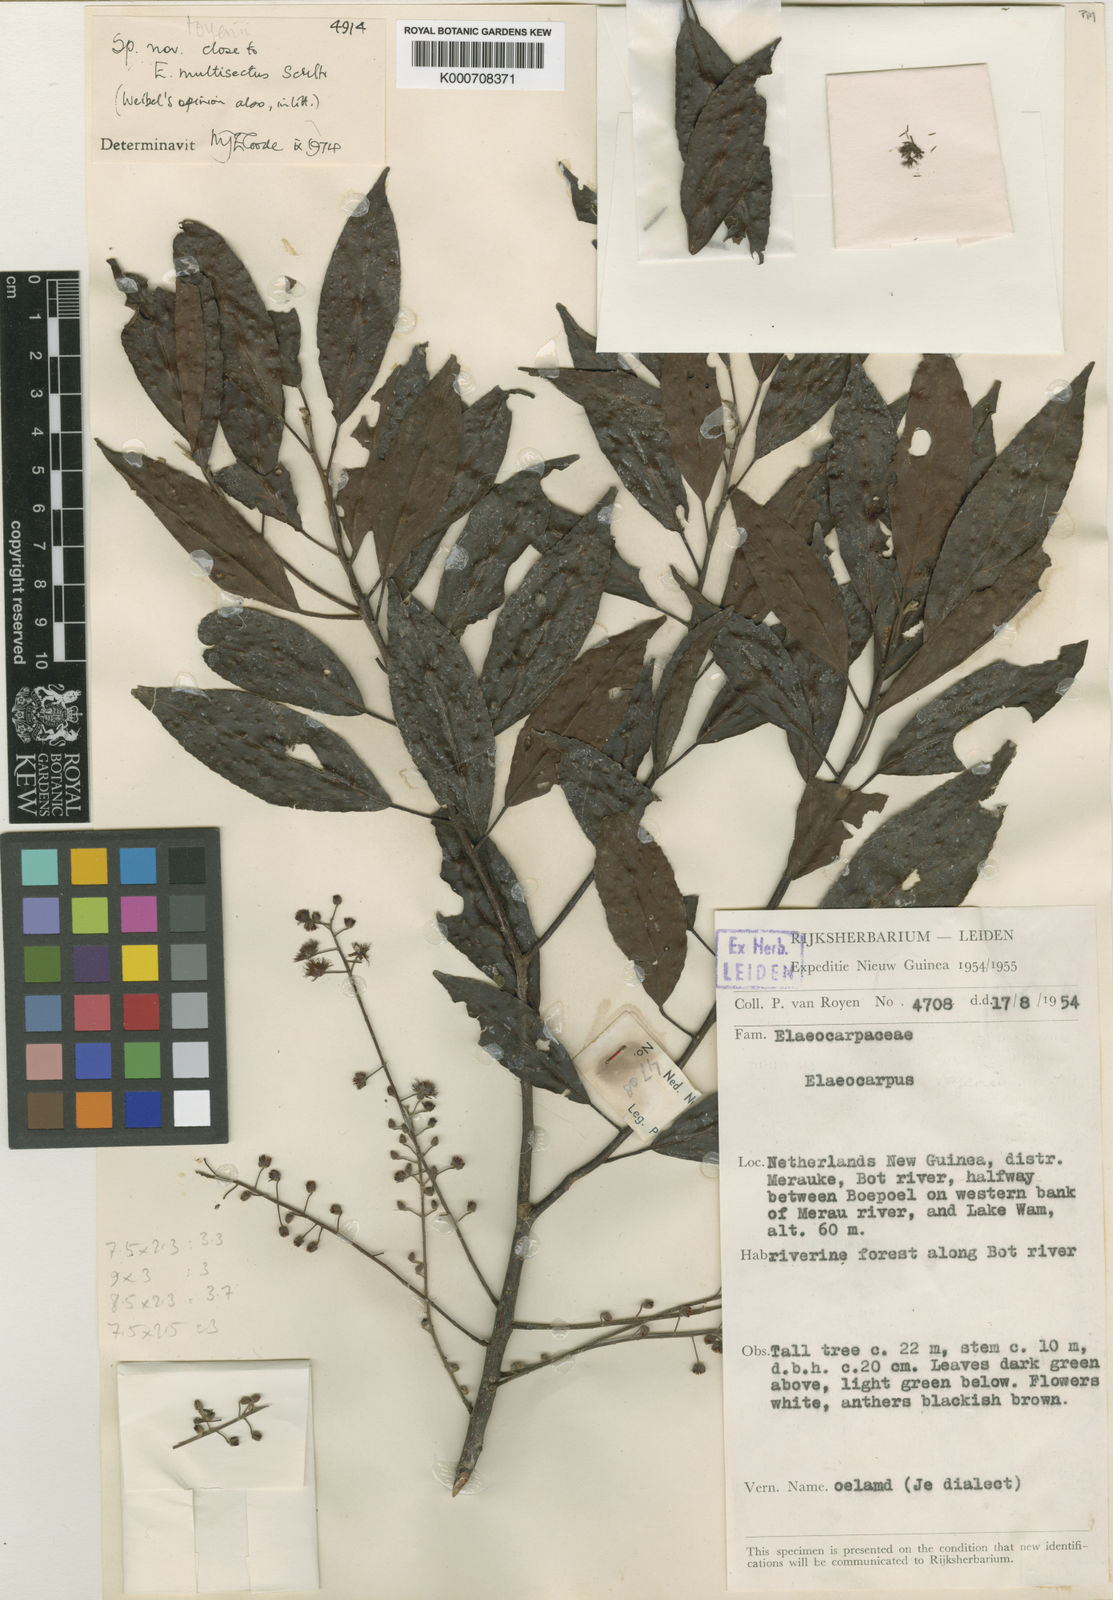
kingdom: Plantae
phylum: Tracheophyta
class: Magnoliopsida
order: Oxalidales
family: Elaeocarpaceae
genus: Elaeocarpus
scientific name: Elaeocarpus royenii
